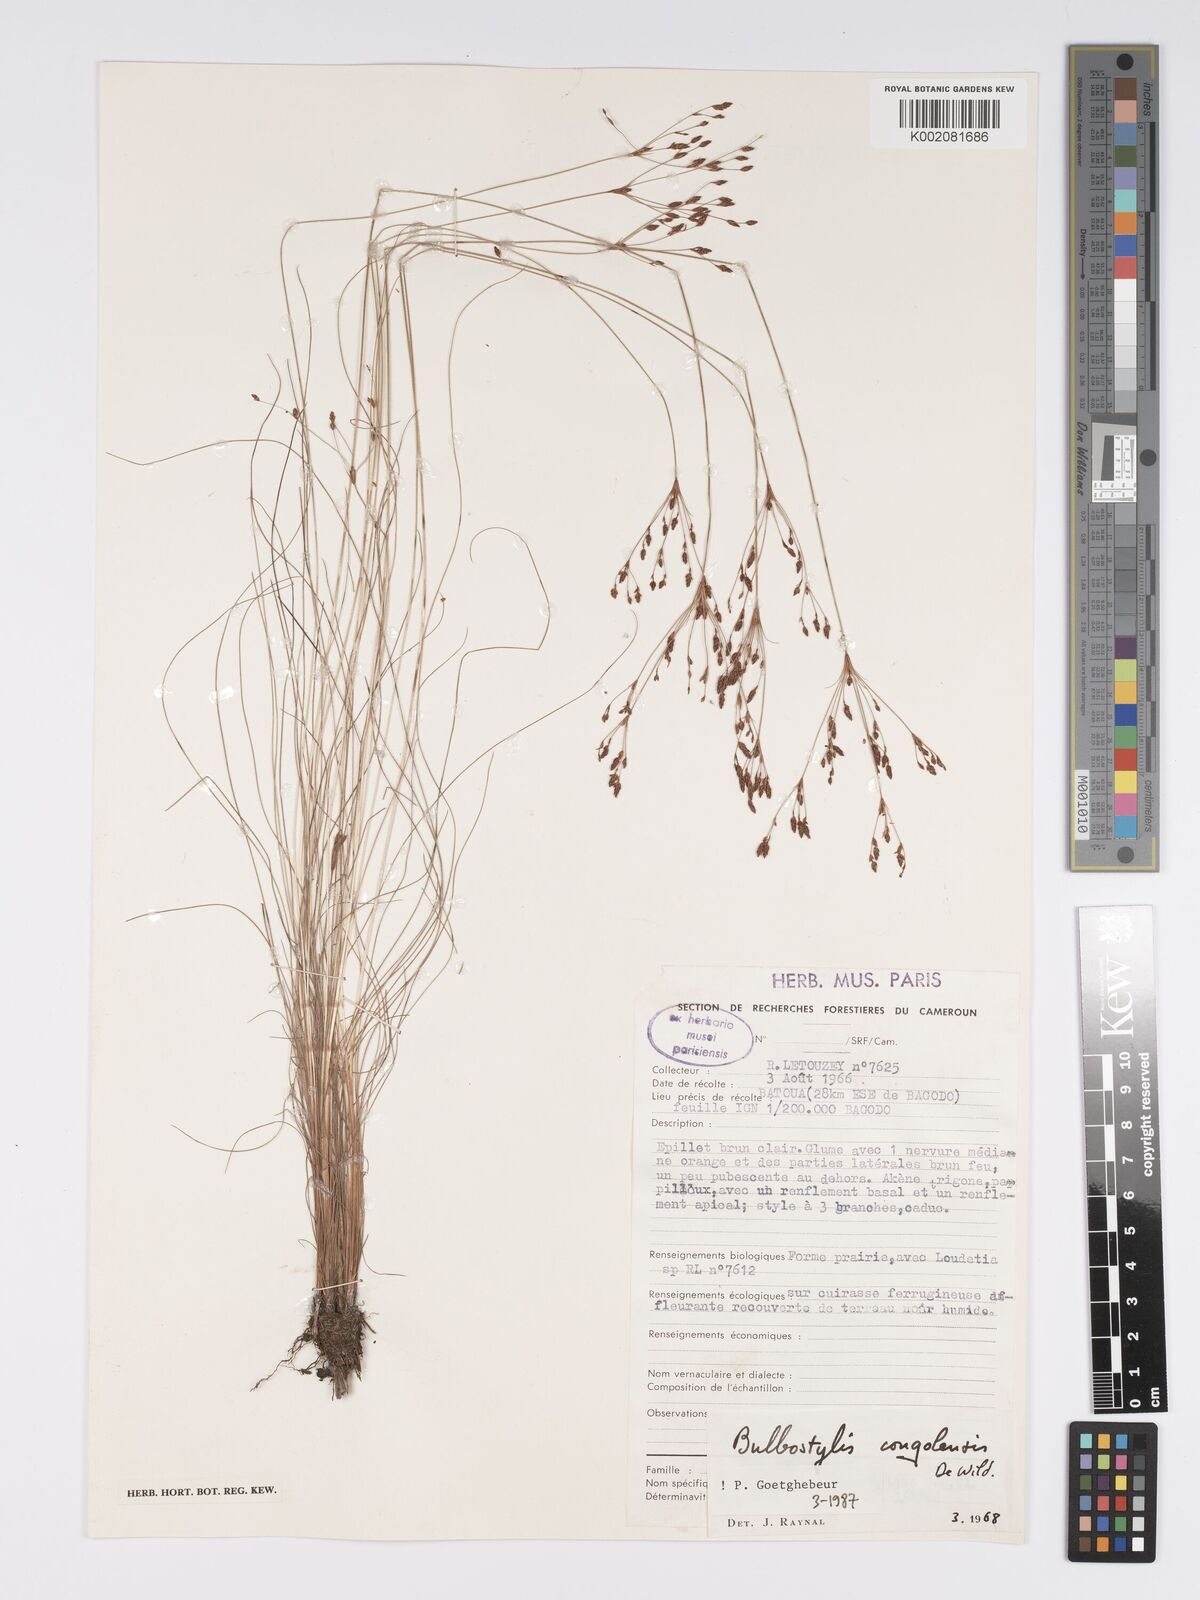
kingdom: Plantae
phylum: Tracheophyta
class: Liliopsida
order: Poales
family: Cyperaceae
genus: Bulbostylis
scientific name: Bulbostylis congolensis
